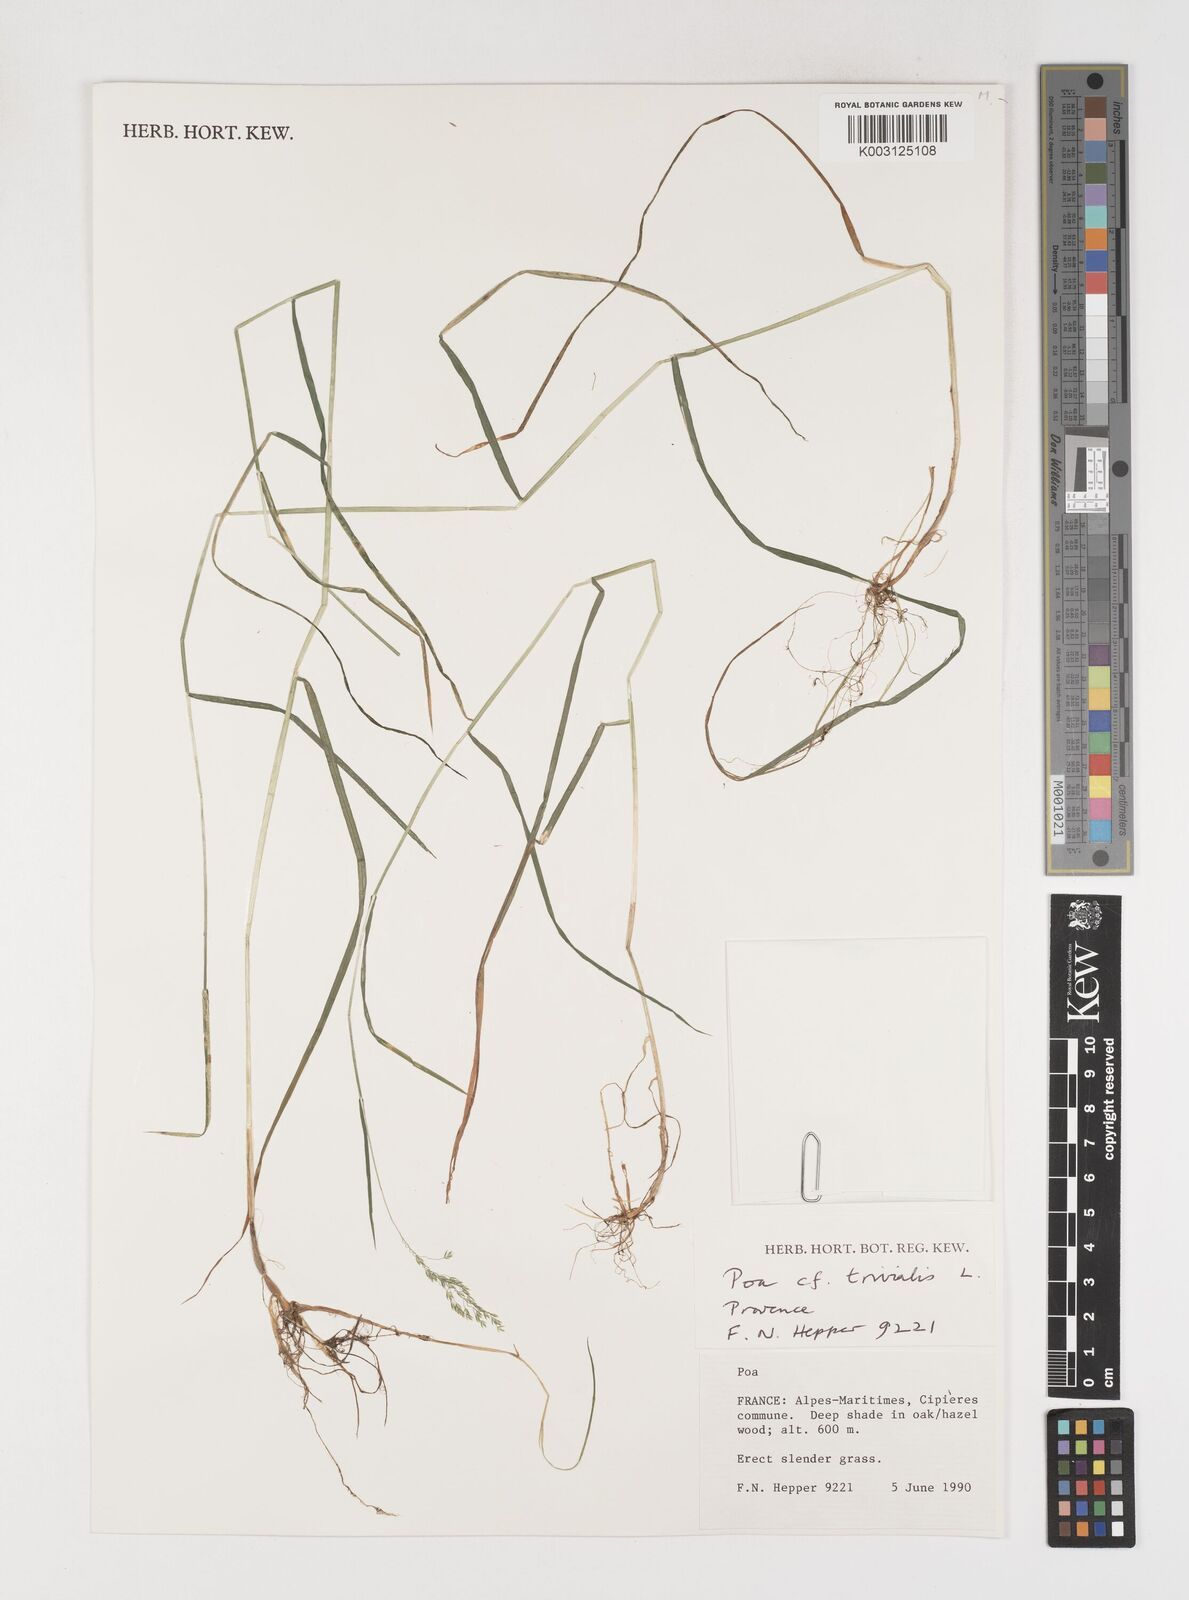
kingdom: Plantae
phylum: Tracheophyta
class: Liliopsida
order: Poales
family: Poaceae
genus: Poa
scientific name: Poa trivialis
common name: Rough bluegrass
